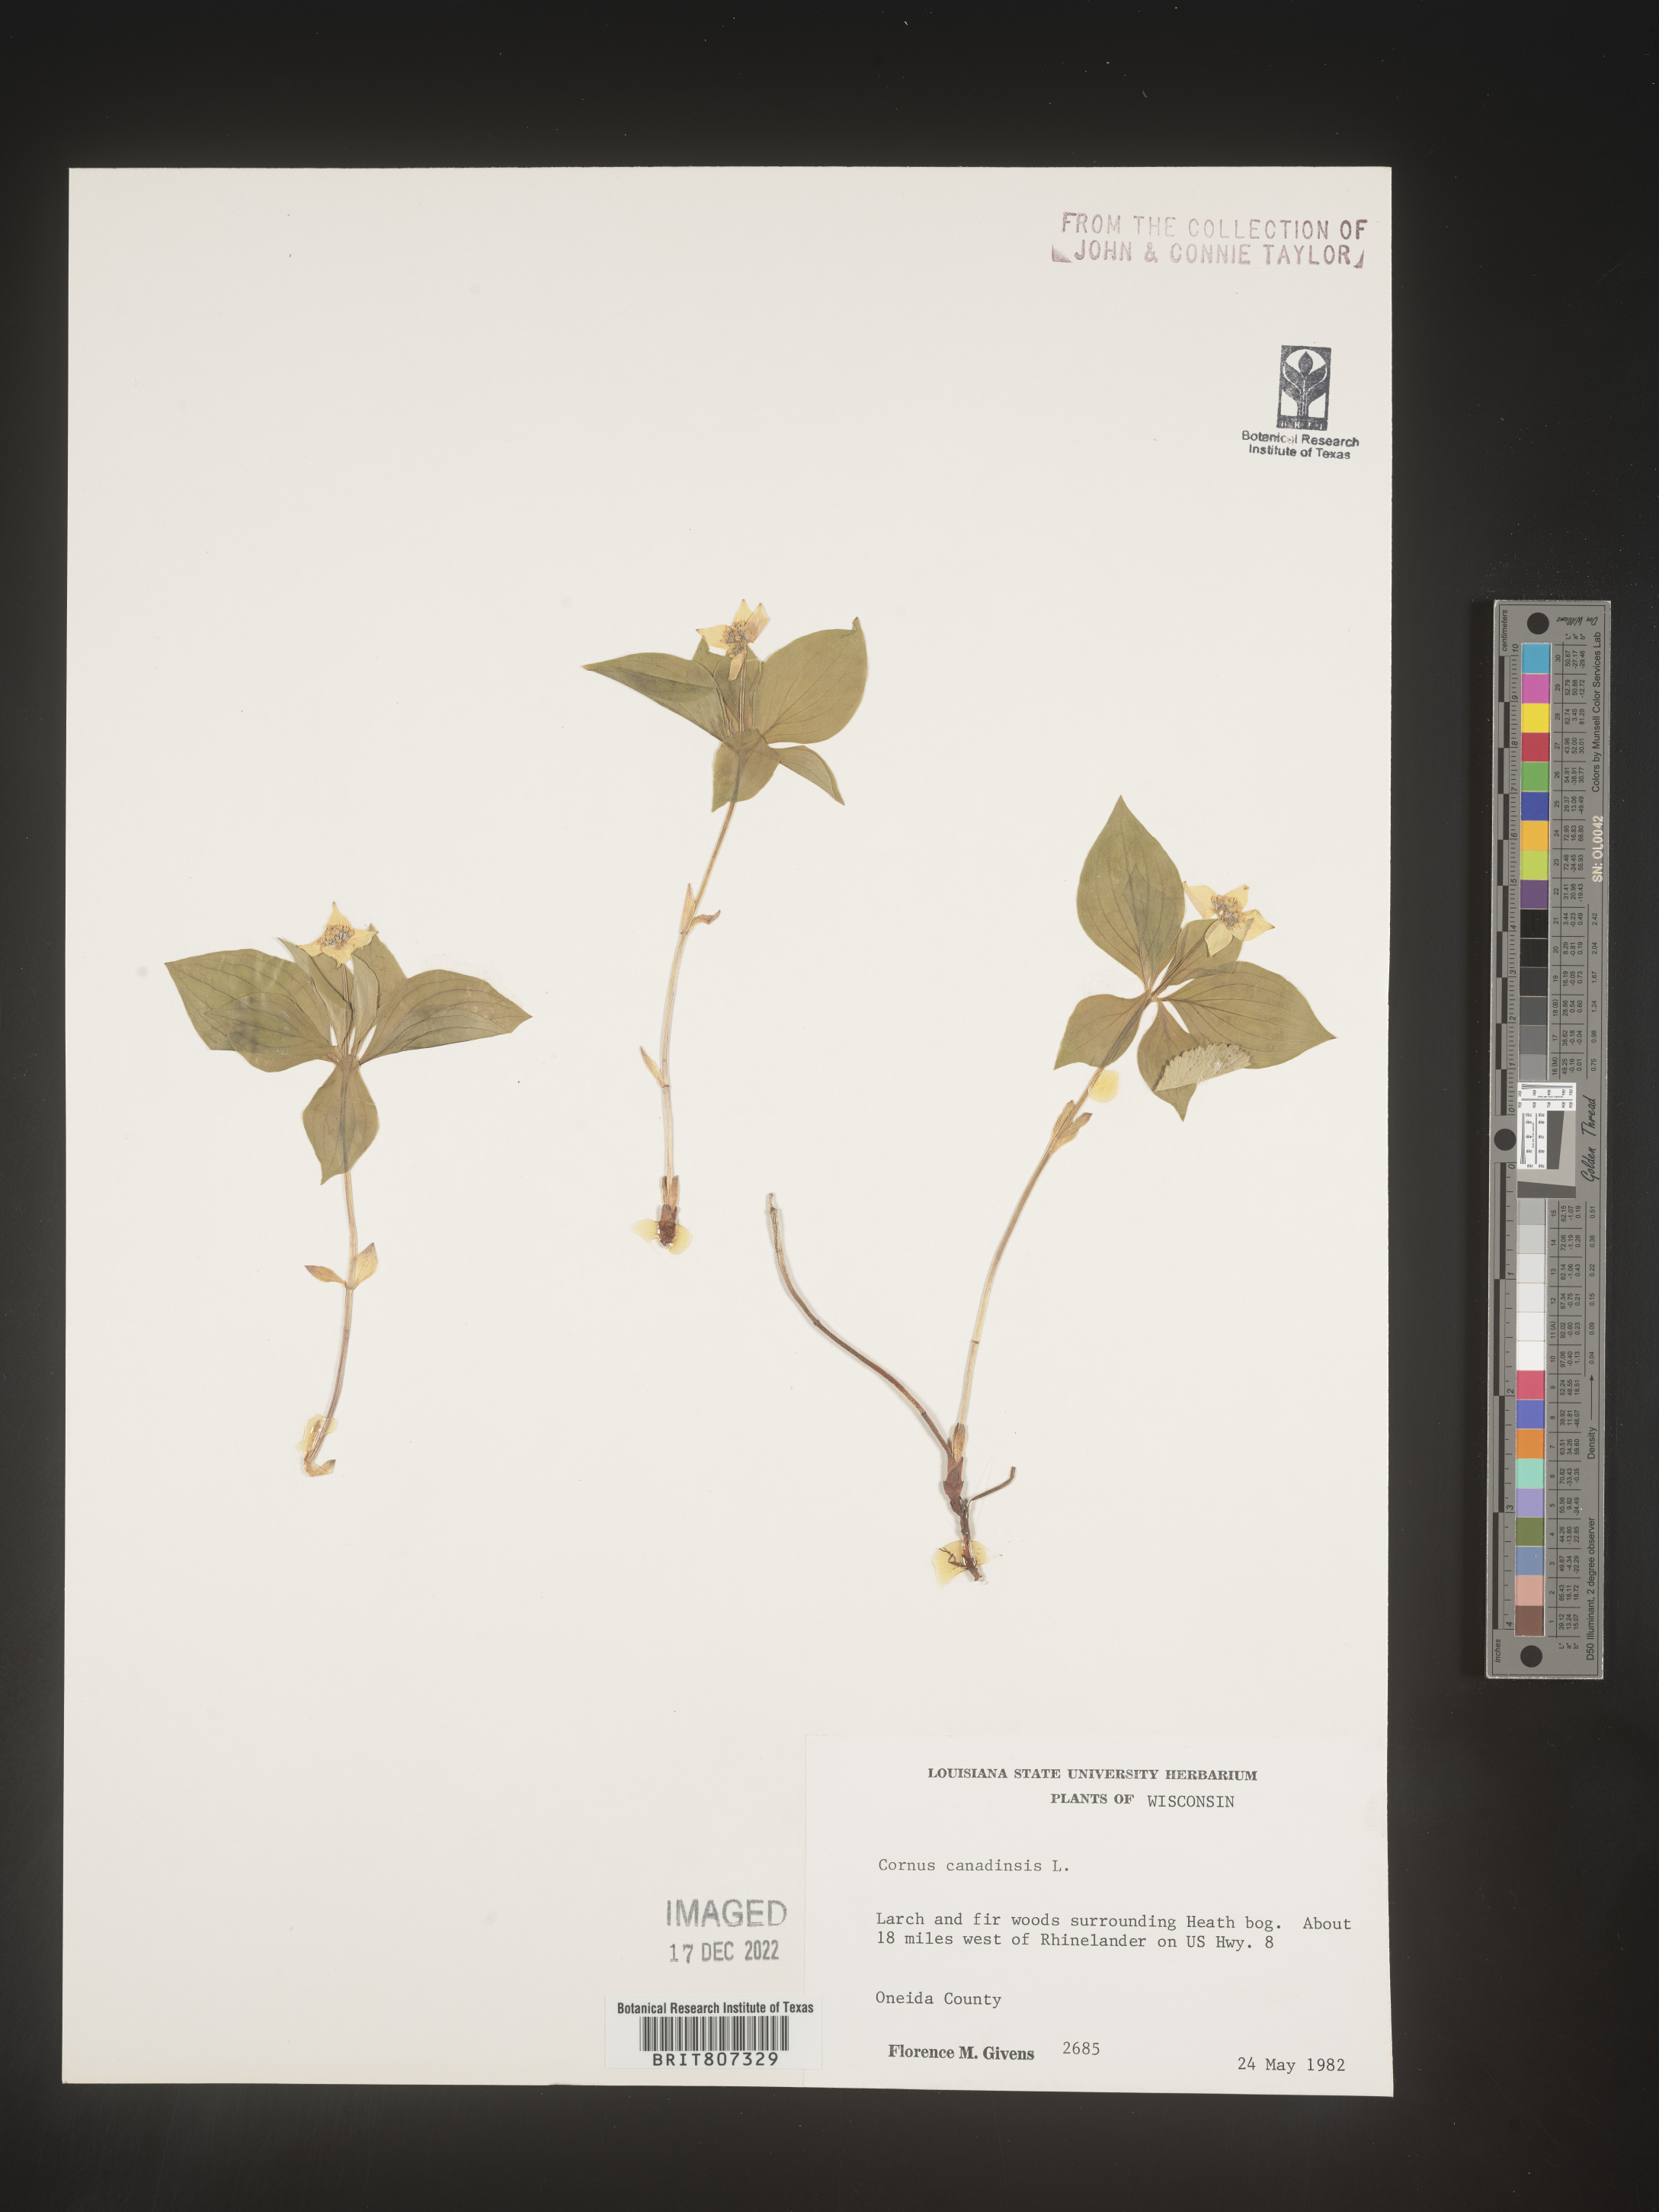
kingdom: Plantae
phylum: Tracheophyta
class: Magnoliopsida
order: Cornales
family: Cornaceae
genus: Cornus
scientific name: Cornus canadensis
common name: Creeping dogwood
